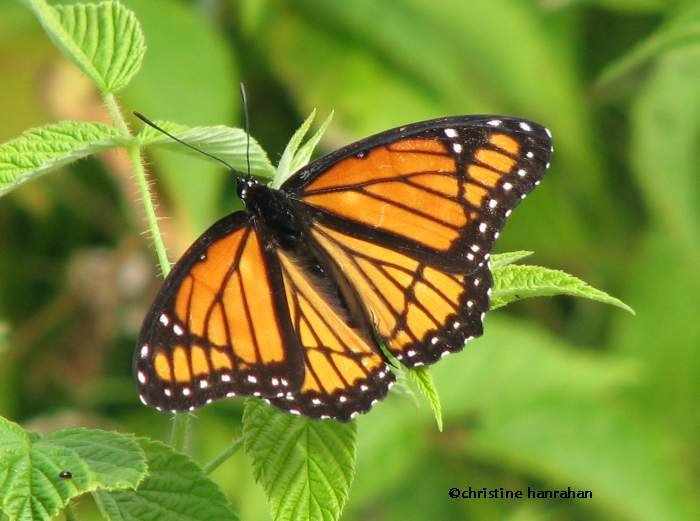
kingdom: Animalia
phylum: Arthropoda
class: Insecta
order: Lepidoptera
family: Nymphalidae
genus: Limenitis
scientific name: Limenitis archippus
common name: Viceroy
